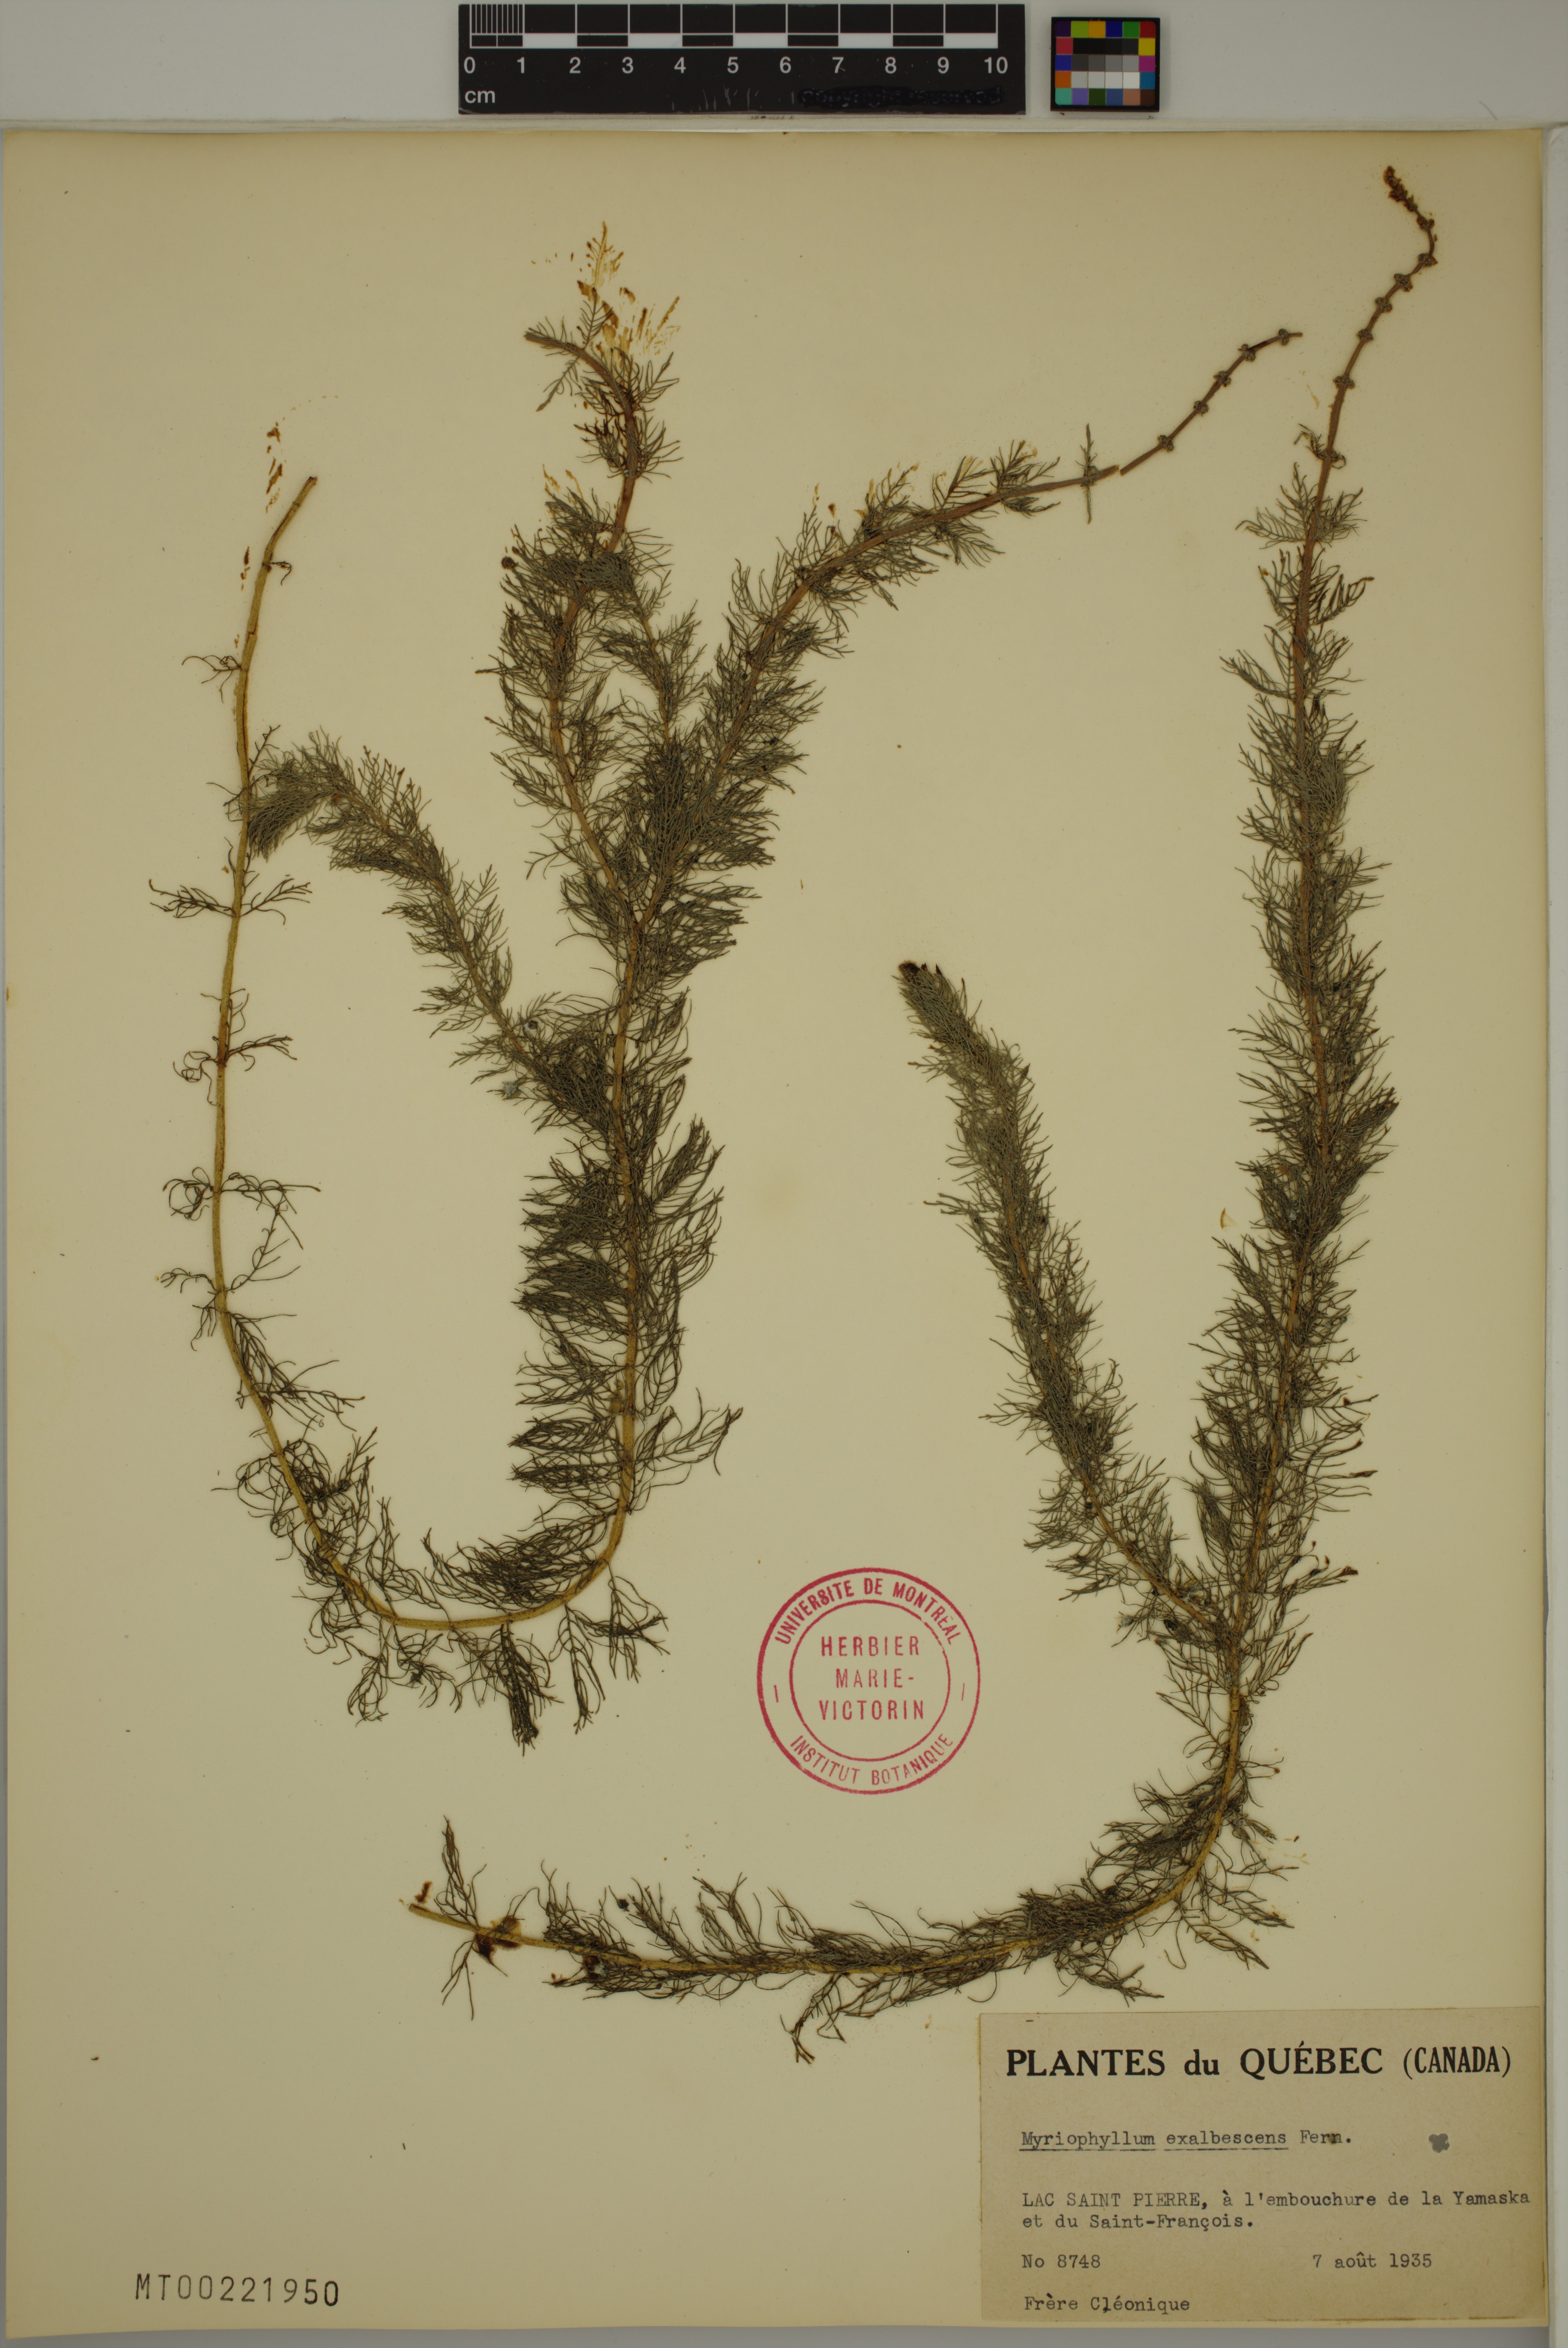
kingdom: Plantae
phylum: Tracheophyta
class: Magnoliopsida
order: Saxifragales
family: Haloragaceae
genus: Myriophyllum
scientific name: Myriophyllum sibiricum
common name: Siberian water-milfoil
